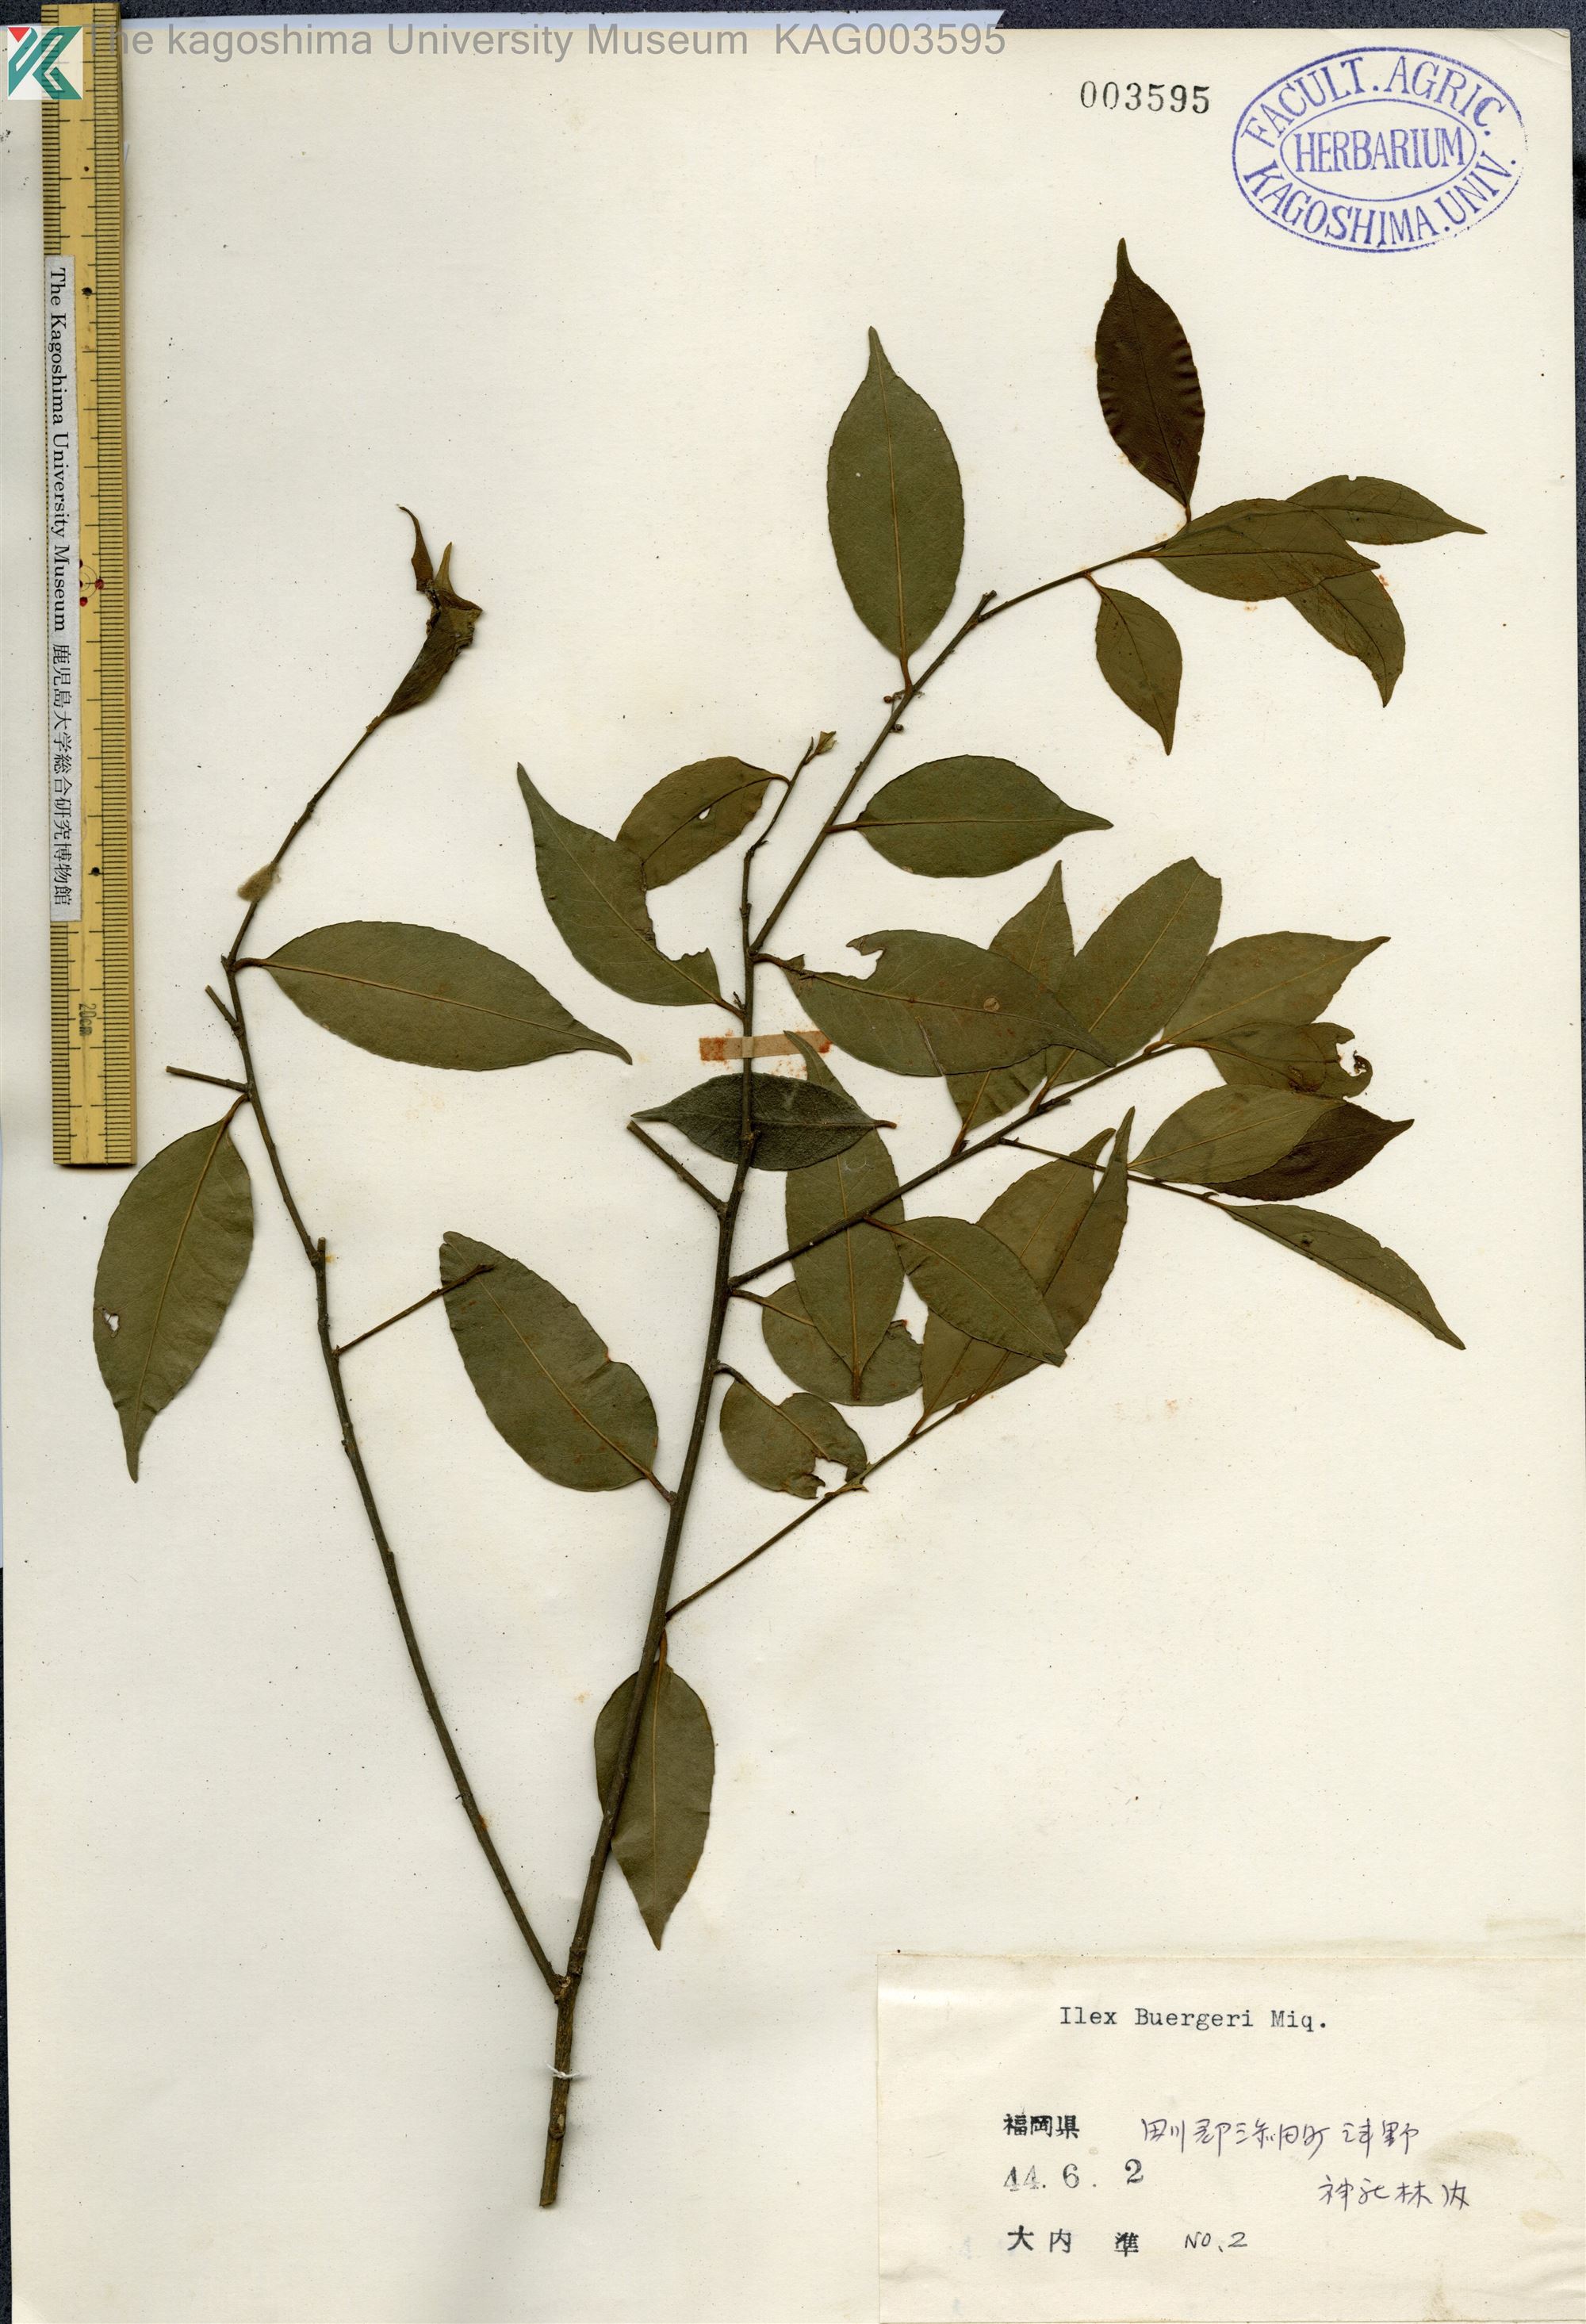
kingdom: Plantae
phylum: Tracheophyta
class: Magnoliopsida
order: Aquifoliales
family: Aquifoliaceae
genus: Ilex
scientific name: Ilex buergeri
